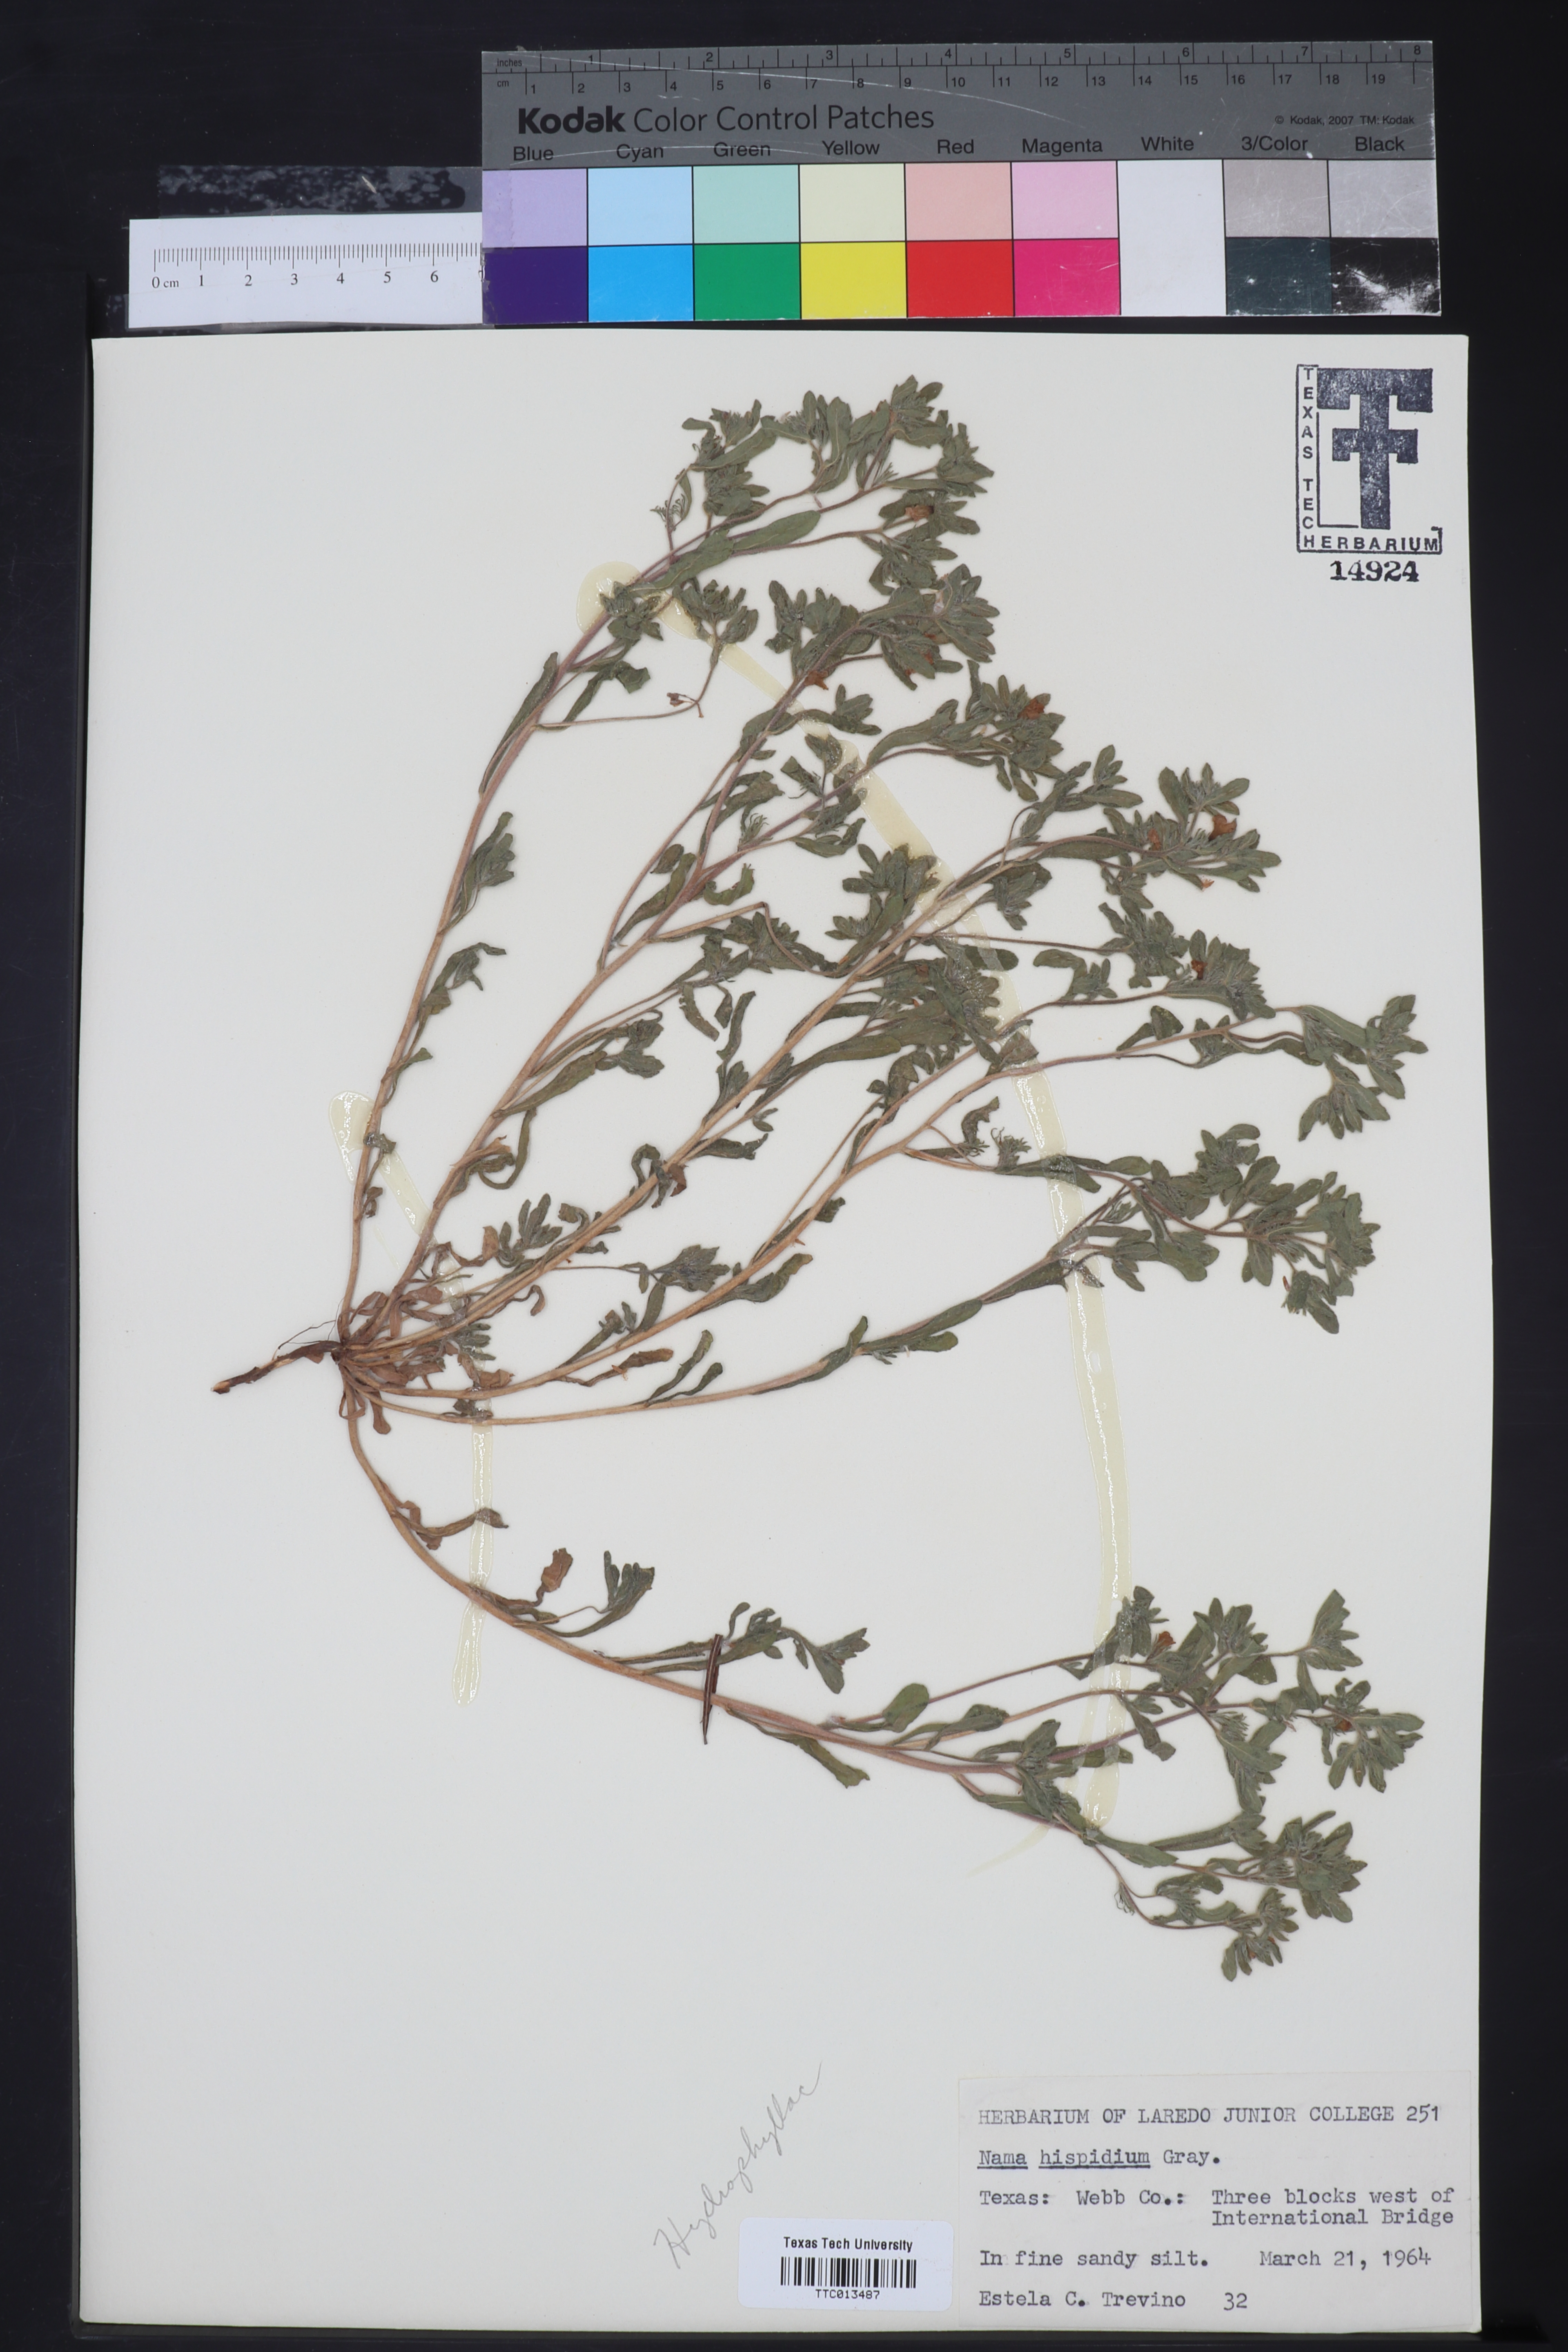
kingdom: Plantae
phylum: Tracheophyta
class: Magnoliopsida
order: Boraginales
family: Namaceae
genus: Nama
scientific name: Nama hispida
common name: Bristly nama
